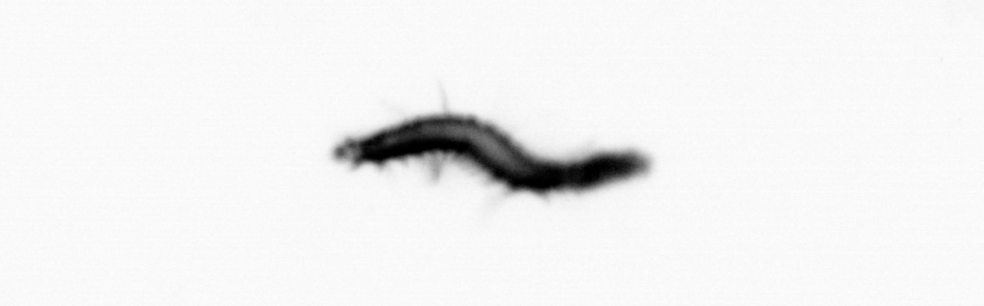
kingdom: Animalia
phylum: Annelida
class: Polychaeta
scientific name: Polychaeta
